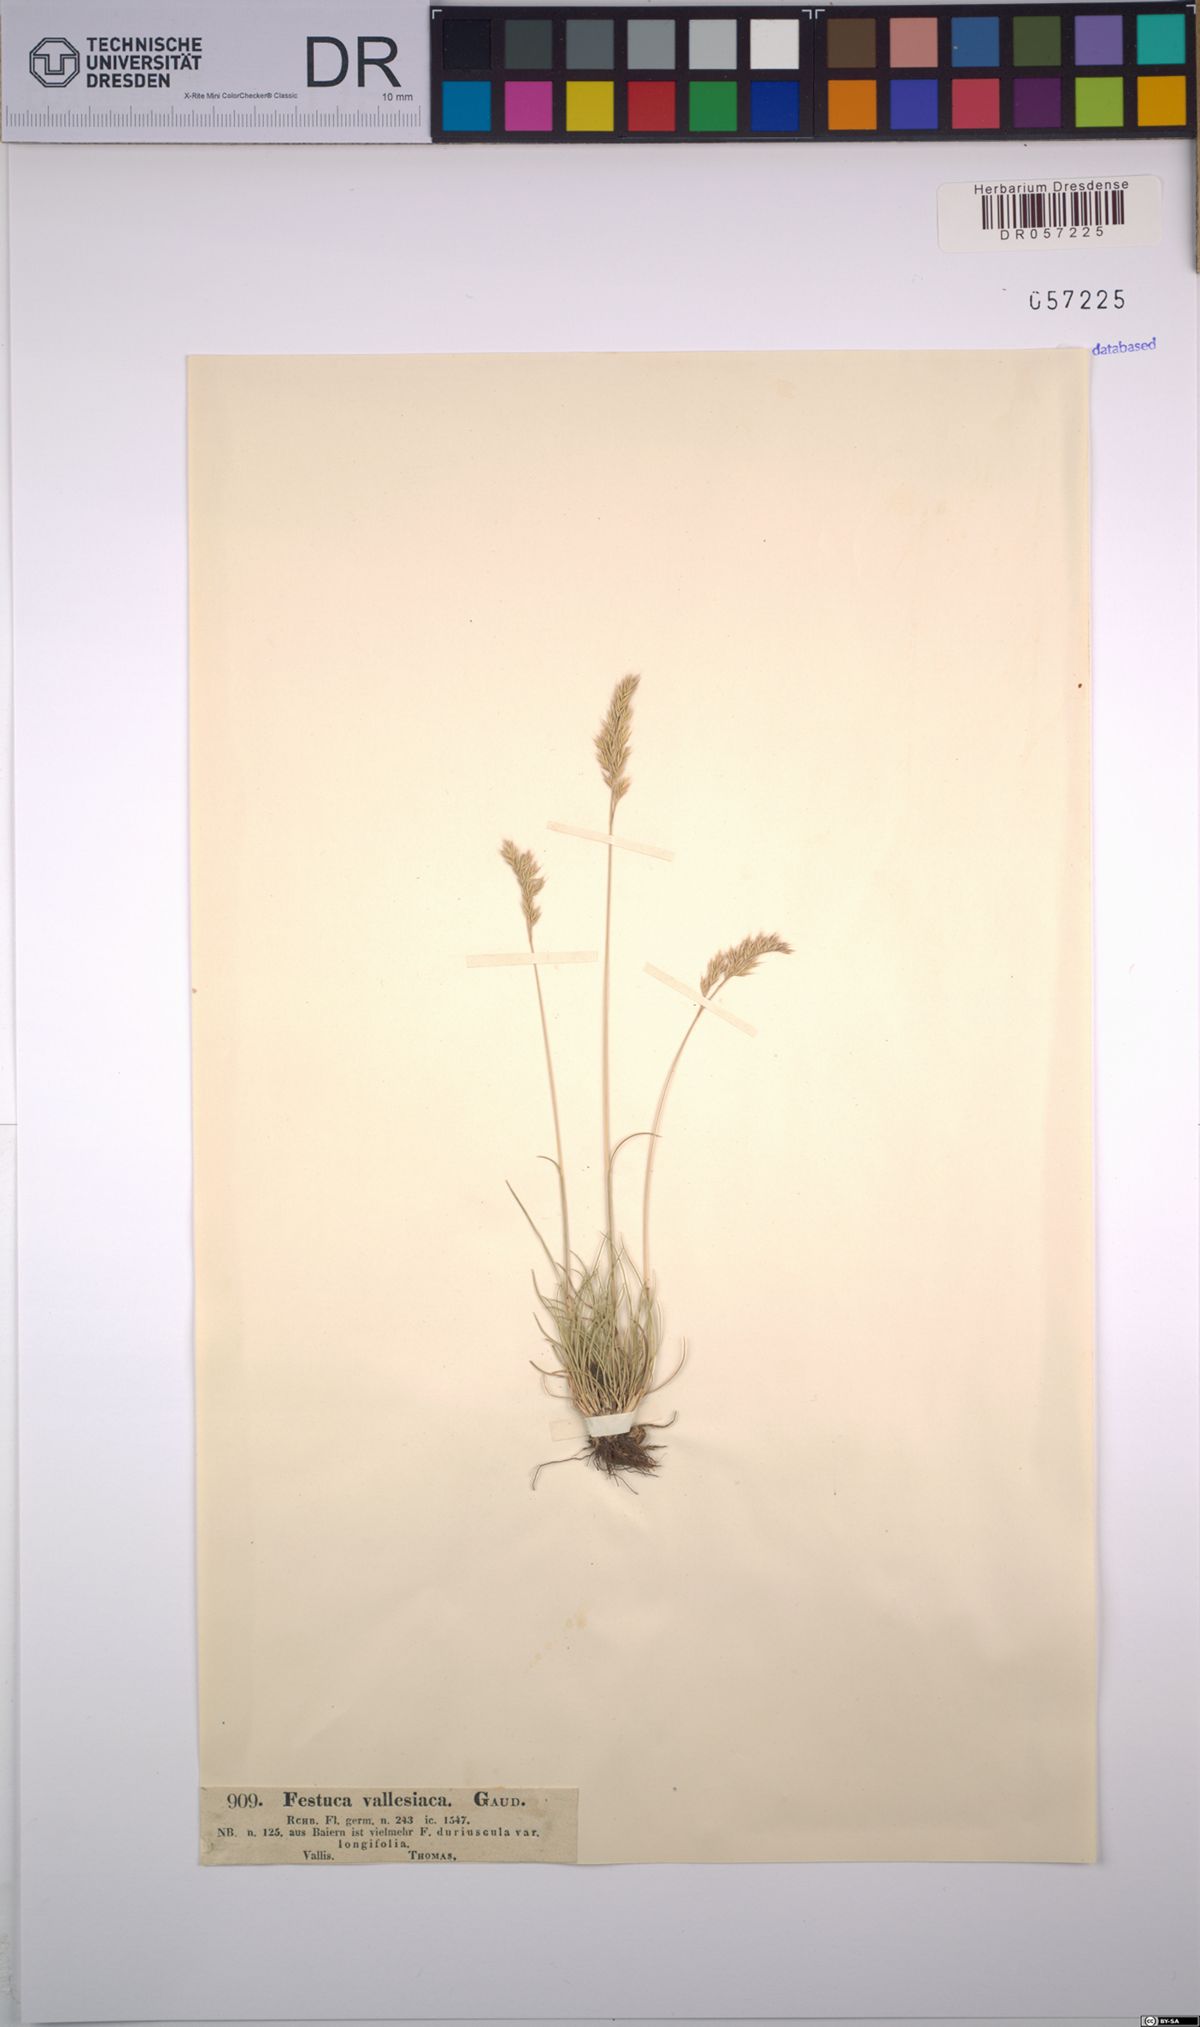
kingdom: Plantae
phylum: Tracheophyta
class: Liliopsida
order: Poales
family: Poaceae
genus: Festuca
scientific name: Festuca valesiaca
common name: Volga fescue
